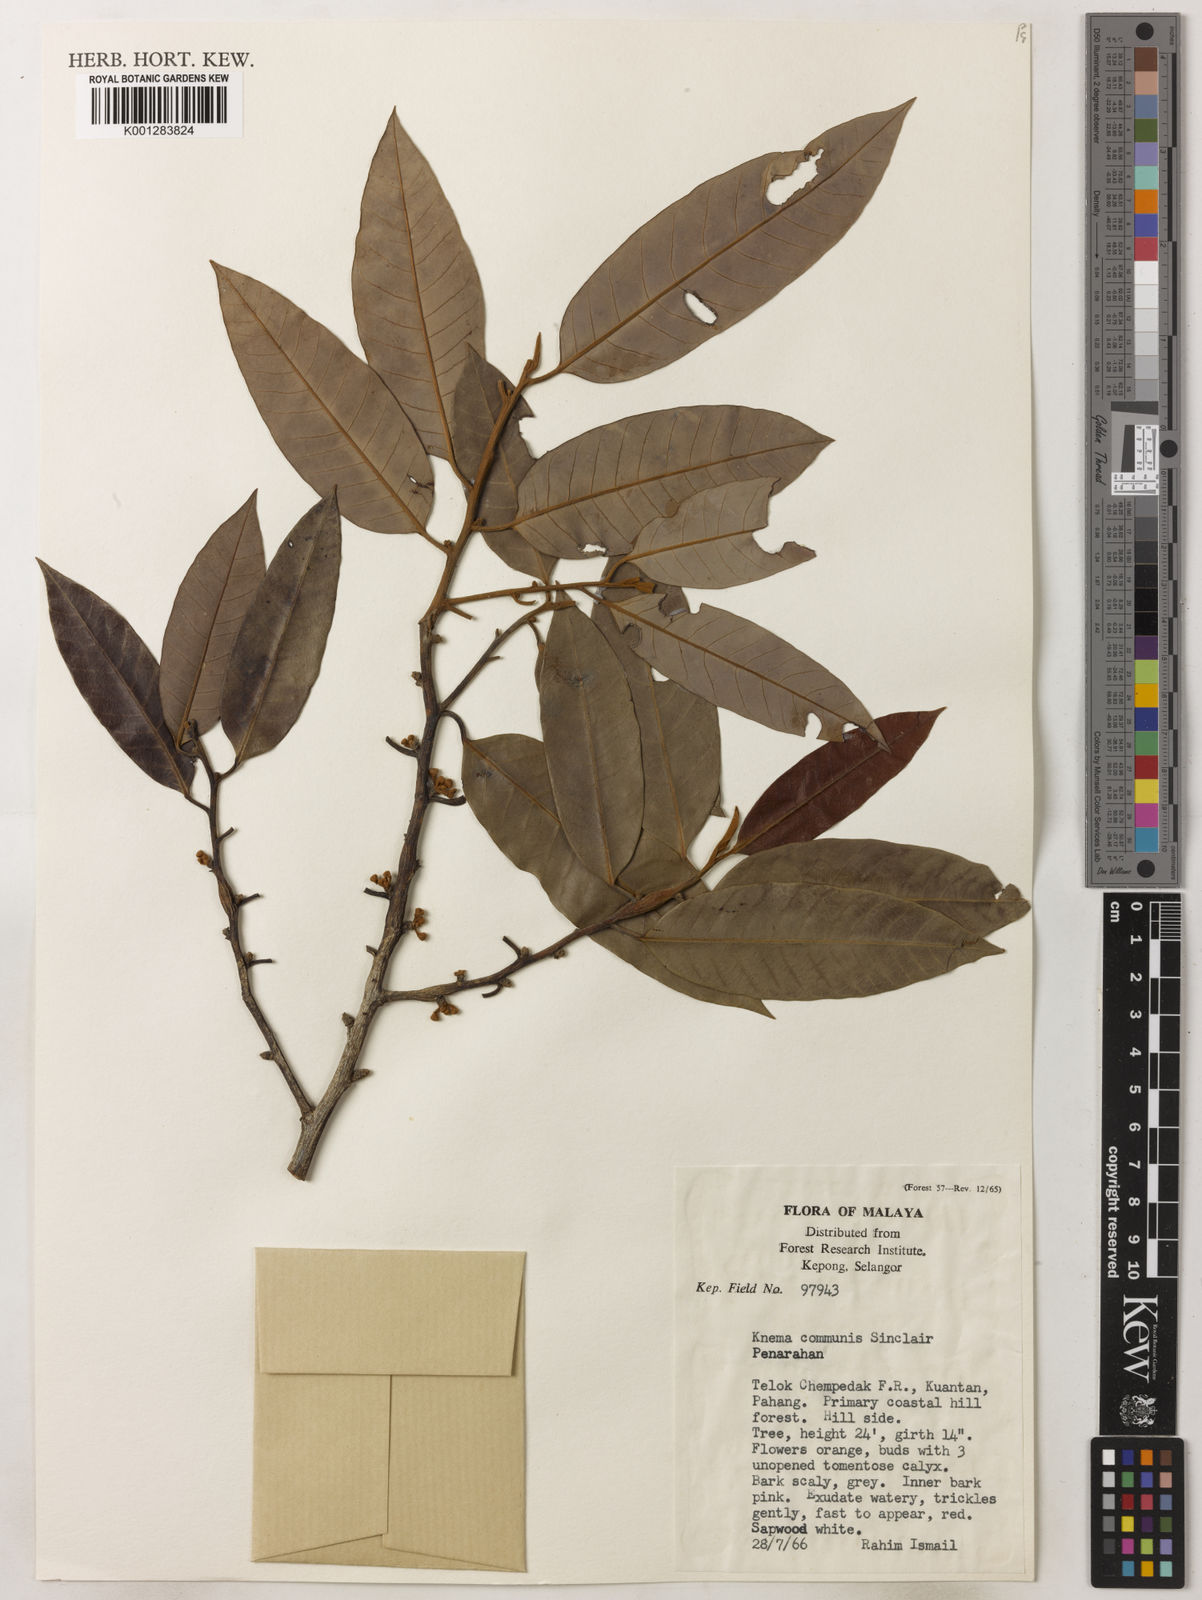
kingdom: Plantae
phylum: Tracheophyta
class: Magnoliopsida
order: Magnoliales
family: Myristicaceae
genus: Knema
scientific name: Knema communis
